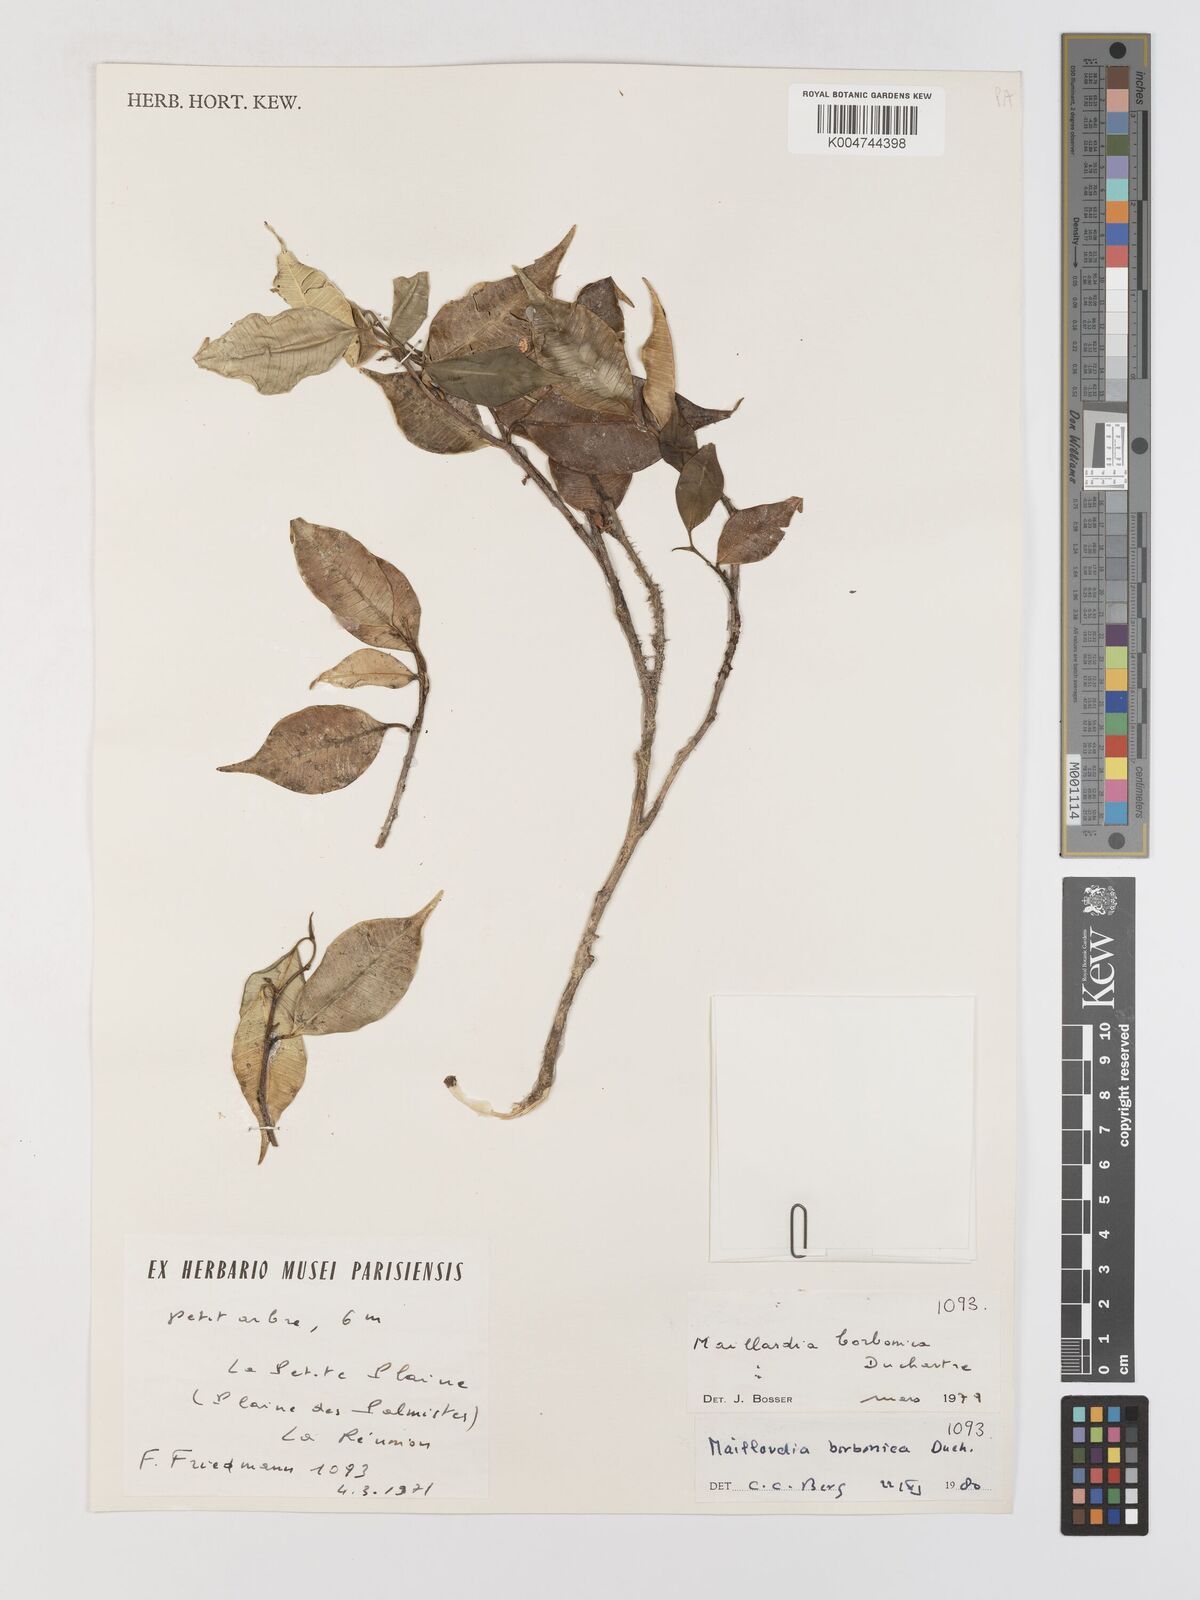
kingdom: Plantae
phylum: Tracheophyta
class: Magnoliopsida
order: Rosales
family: Moraceae
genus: Maillardia
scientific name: Maillardia borbonica
